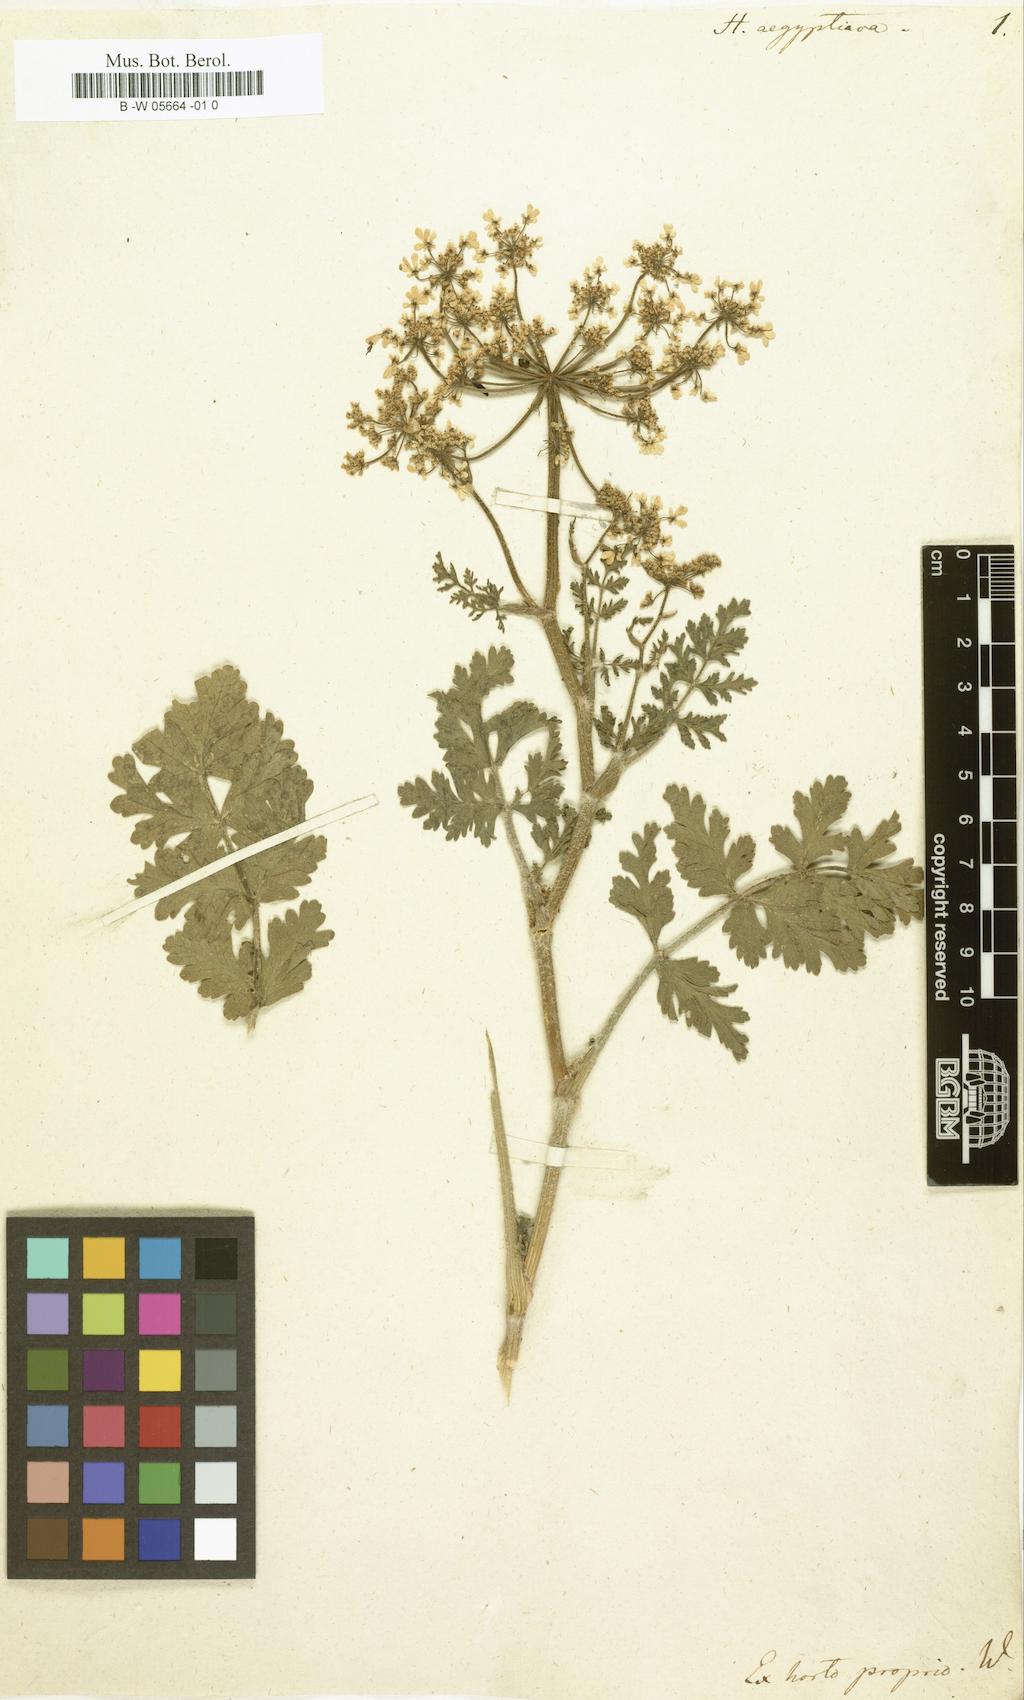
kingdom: Plantae
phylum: Tracheophyta
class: Magnoliopsida
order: Apiales
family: Apiaceae
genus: Tordylium
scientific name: Tordylium aegyptiacum
